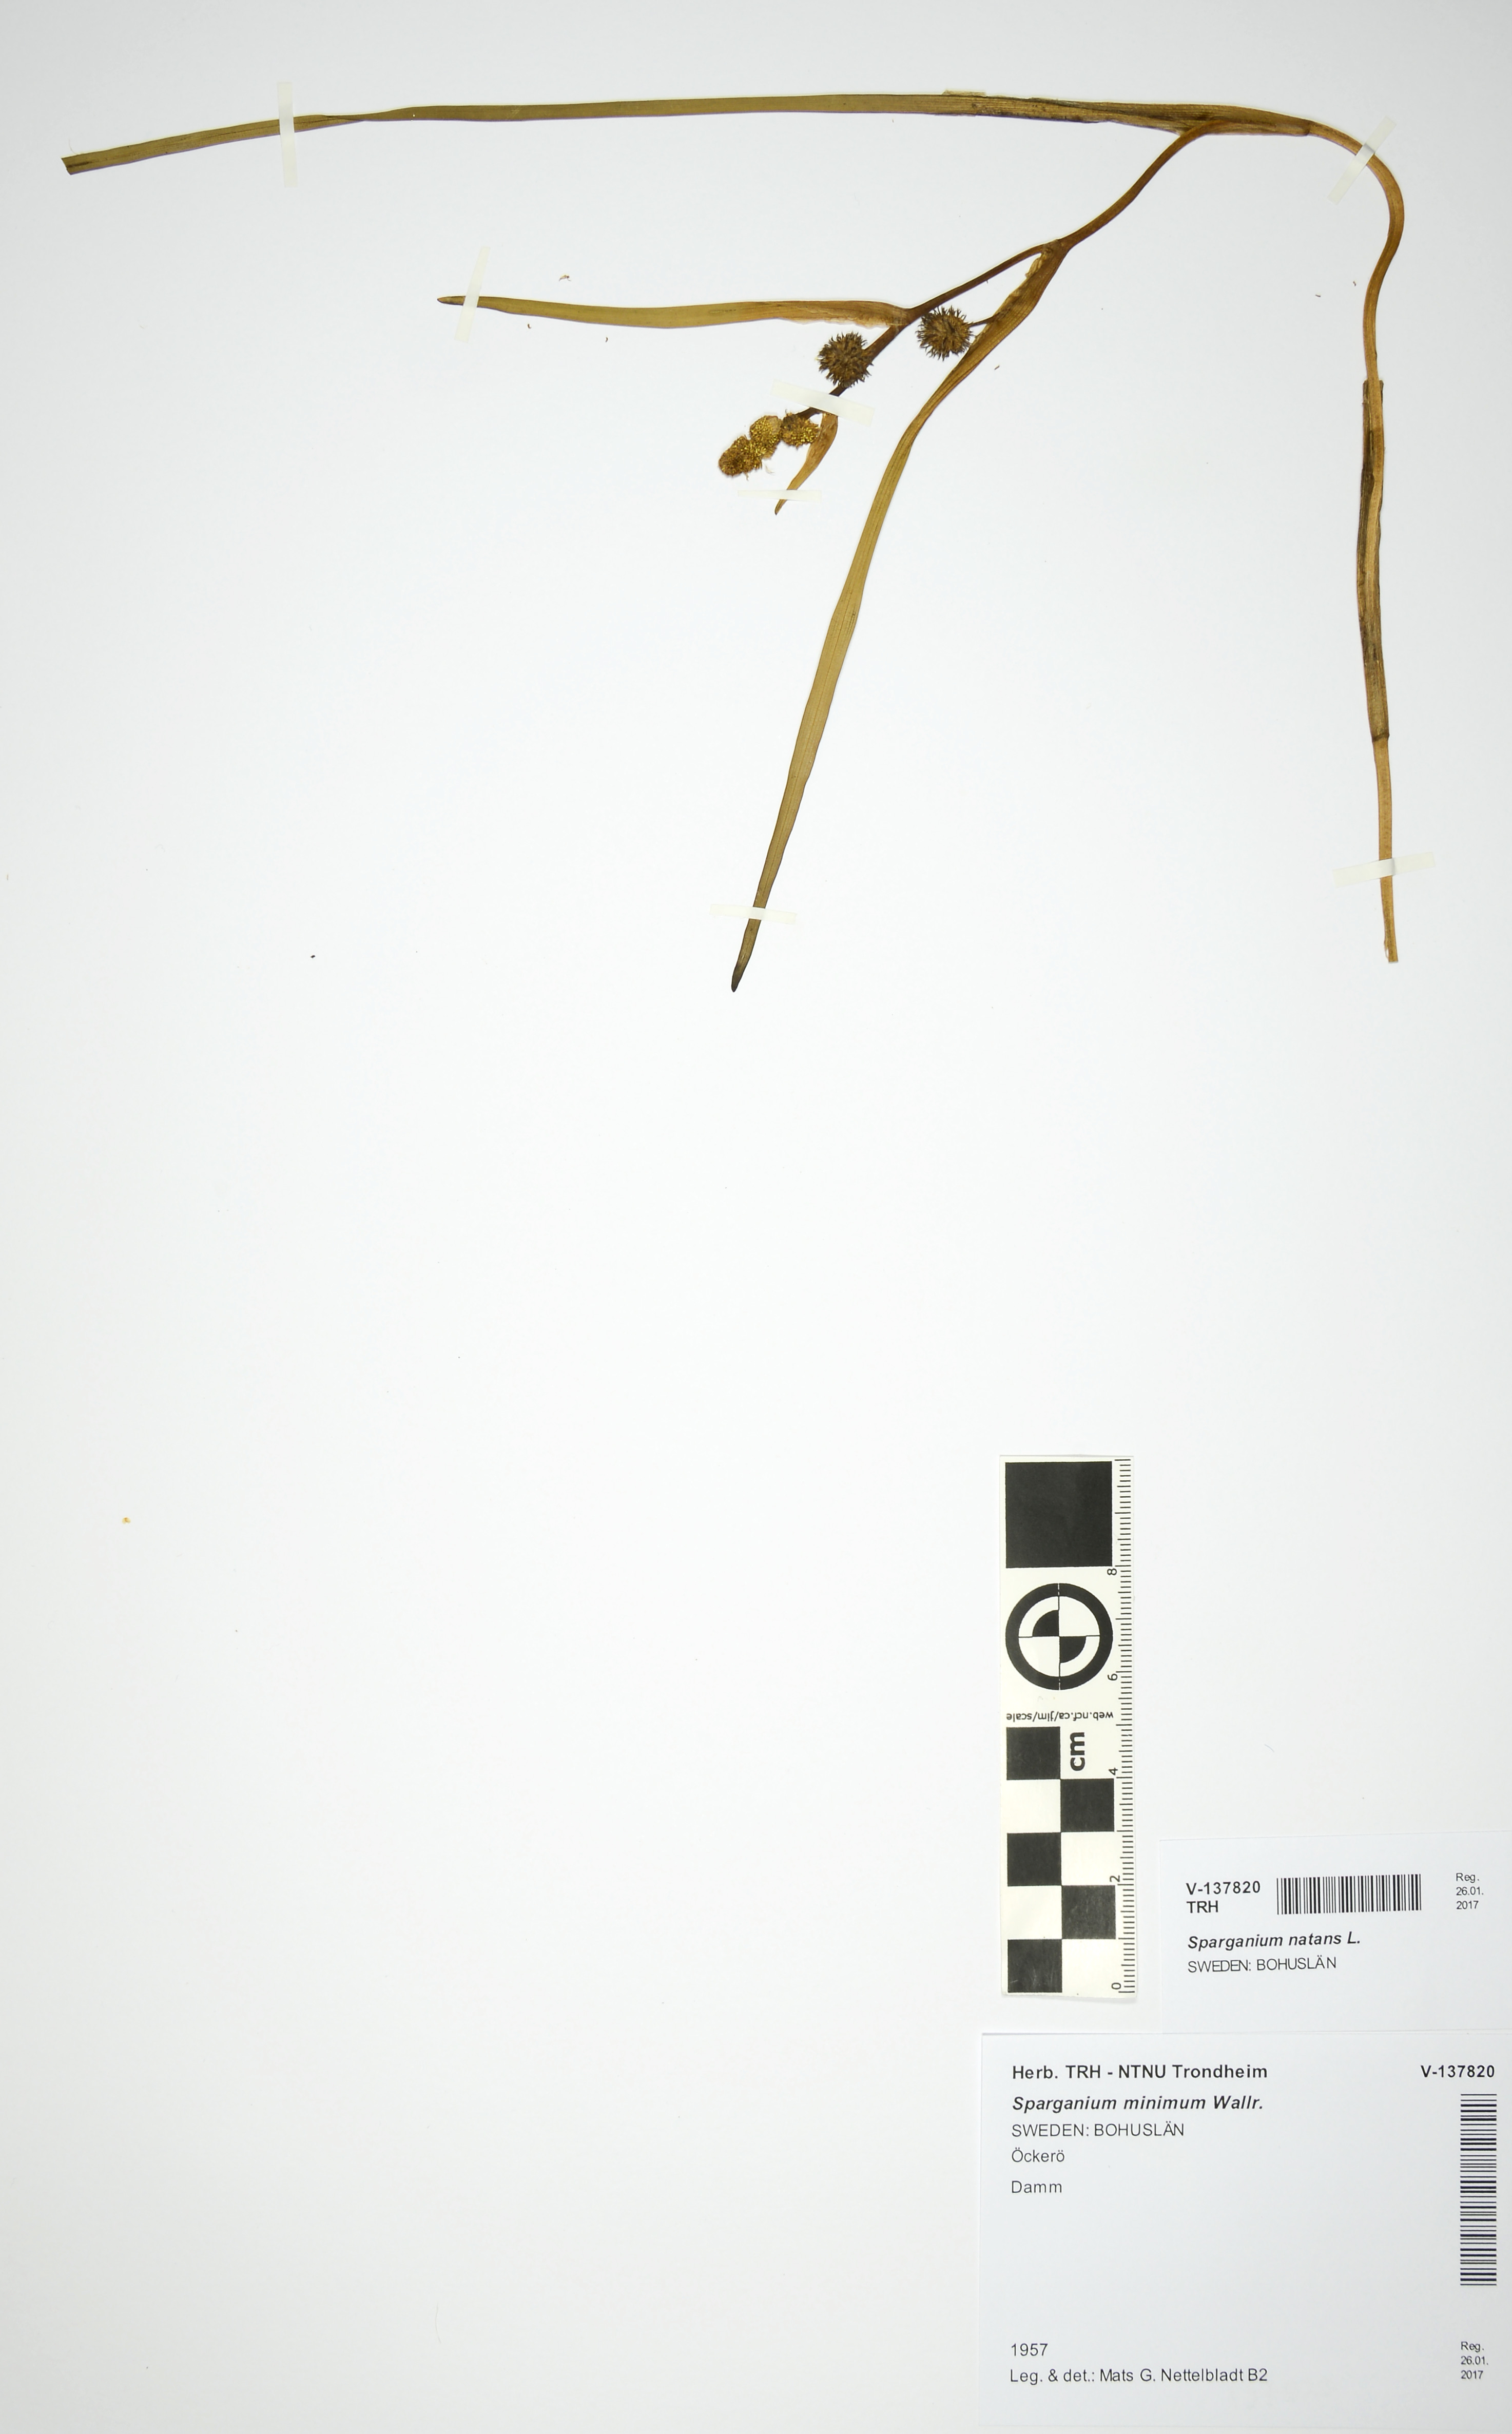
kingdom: Plantae
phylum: Tracheophyta
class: Liliopsida
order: Poales
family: Typhaceae
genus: Sparganium
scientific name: Sparganium natans
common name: Least bur-reed
